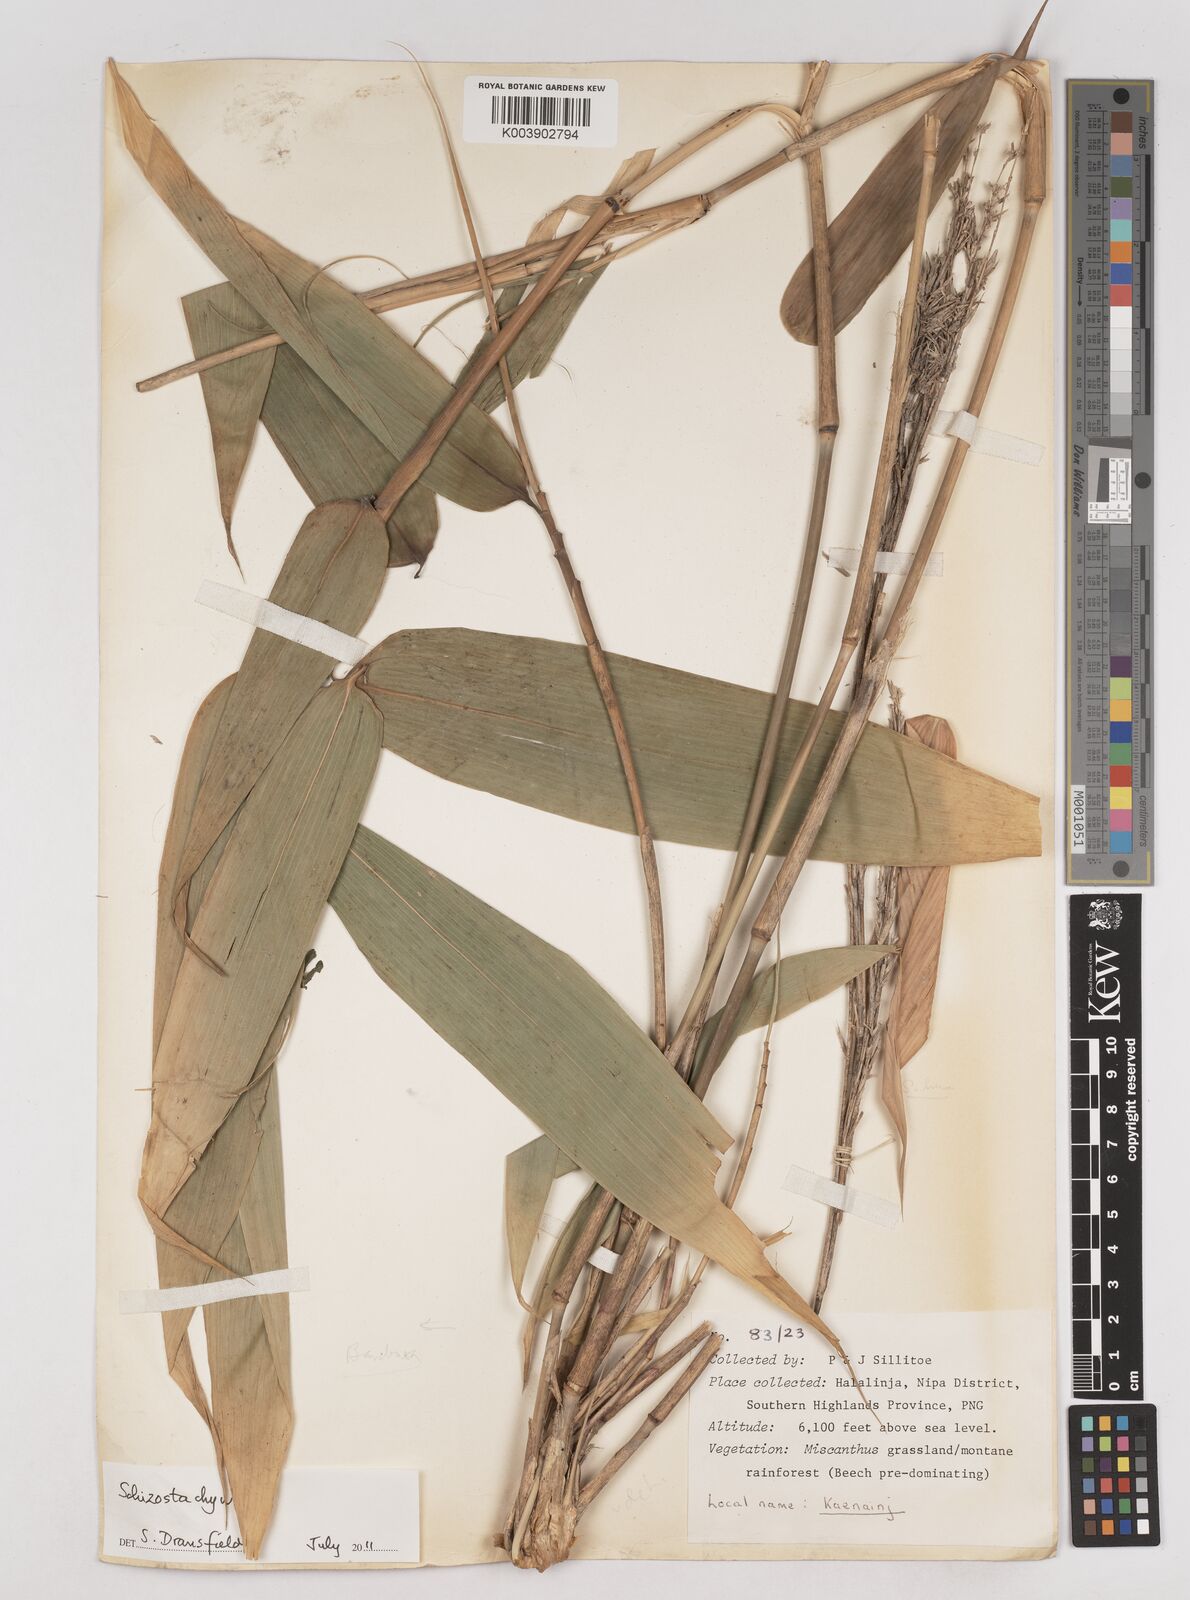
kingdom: Plantae
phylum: Tracheophyta
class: Liliopsida
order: Poales
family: Poaceae
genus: Schizostachyum
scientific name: Schizostachyum
